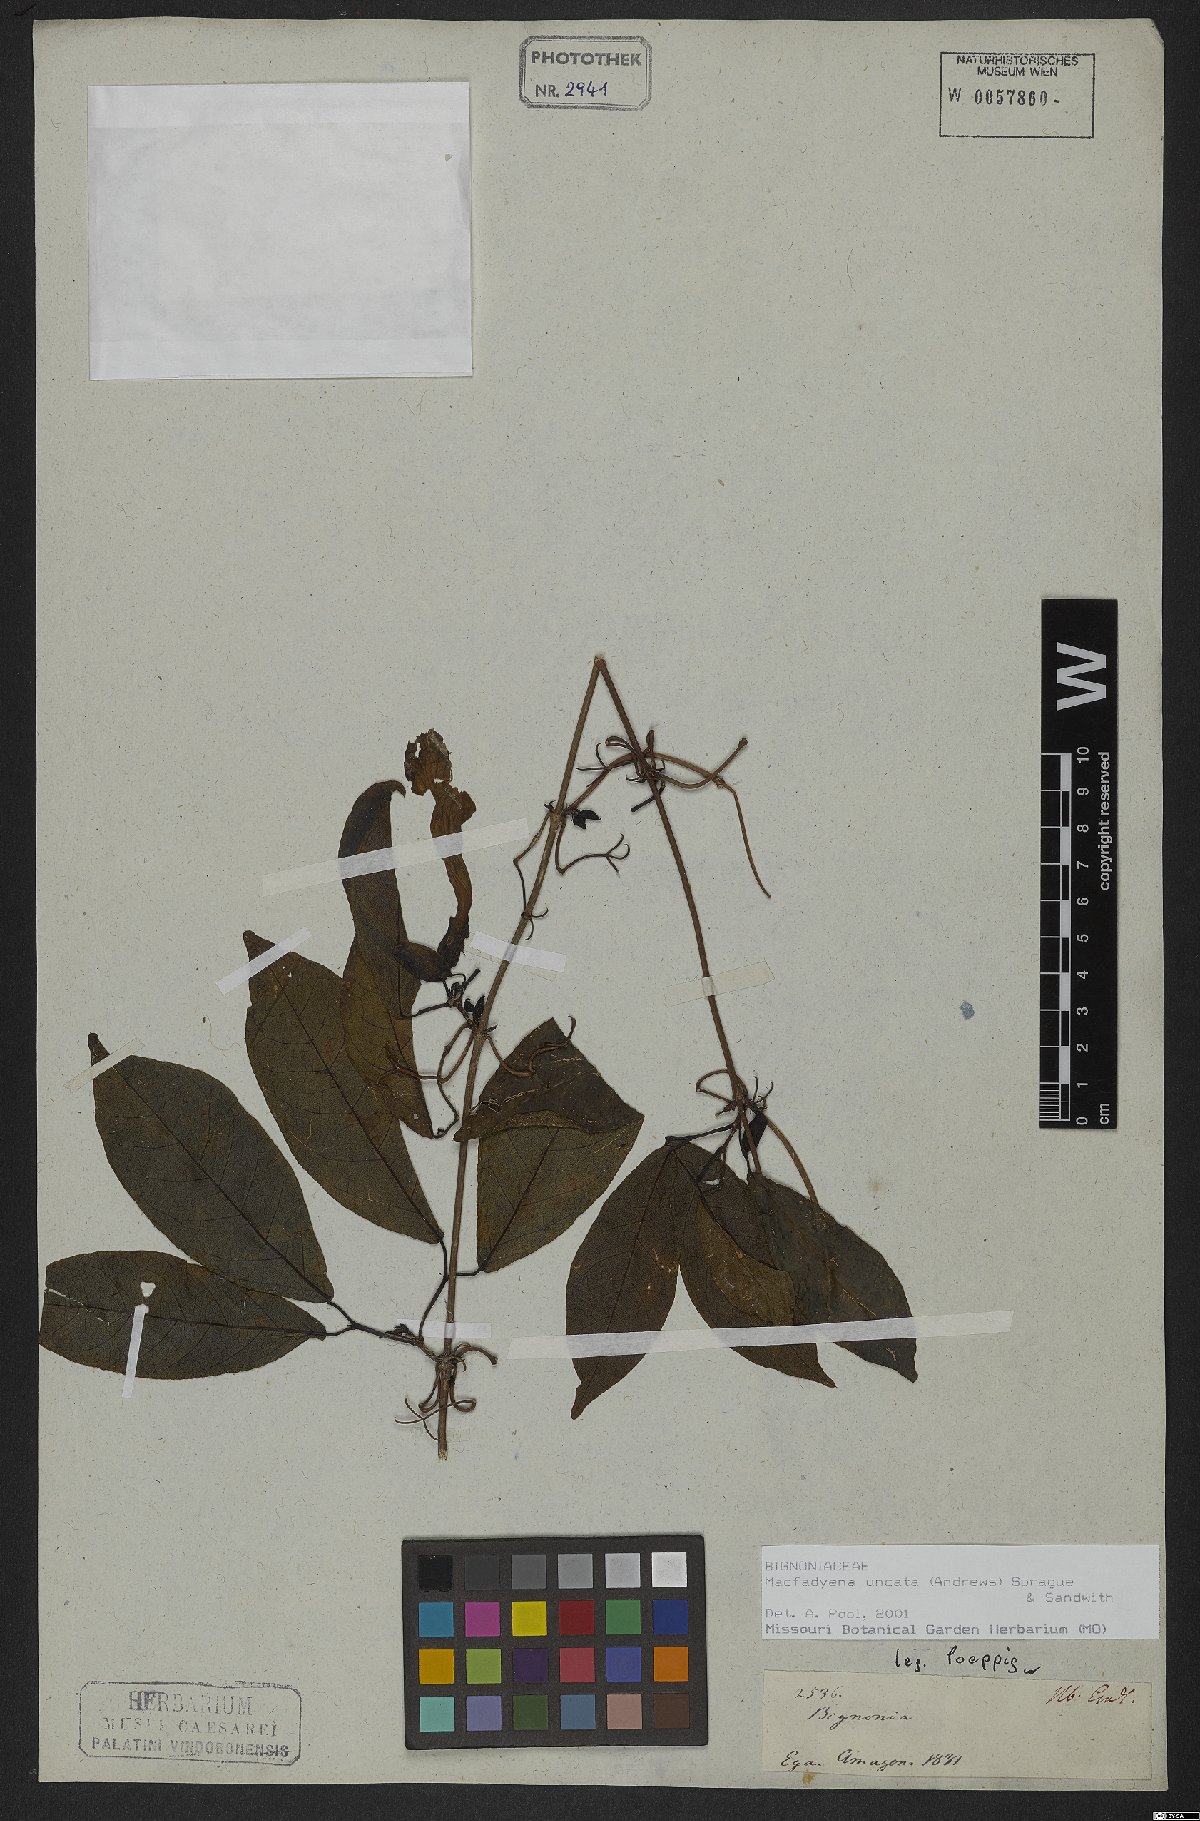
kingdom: Plantae
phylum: Tracheophyta
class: Magnoliopsida
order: Lamiales
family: Bignoniaceae
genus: Dolichandra
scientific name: Dolichandra uncata
